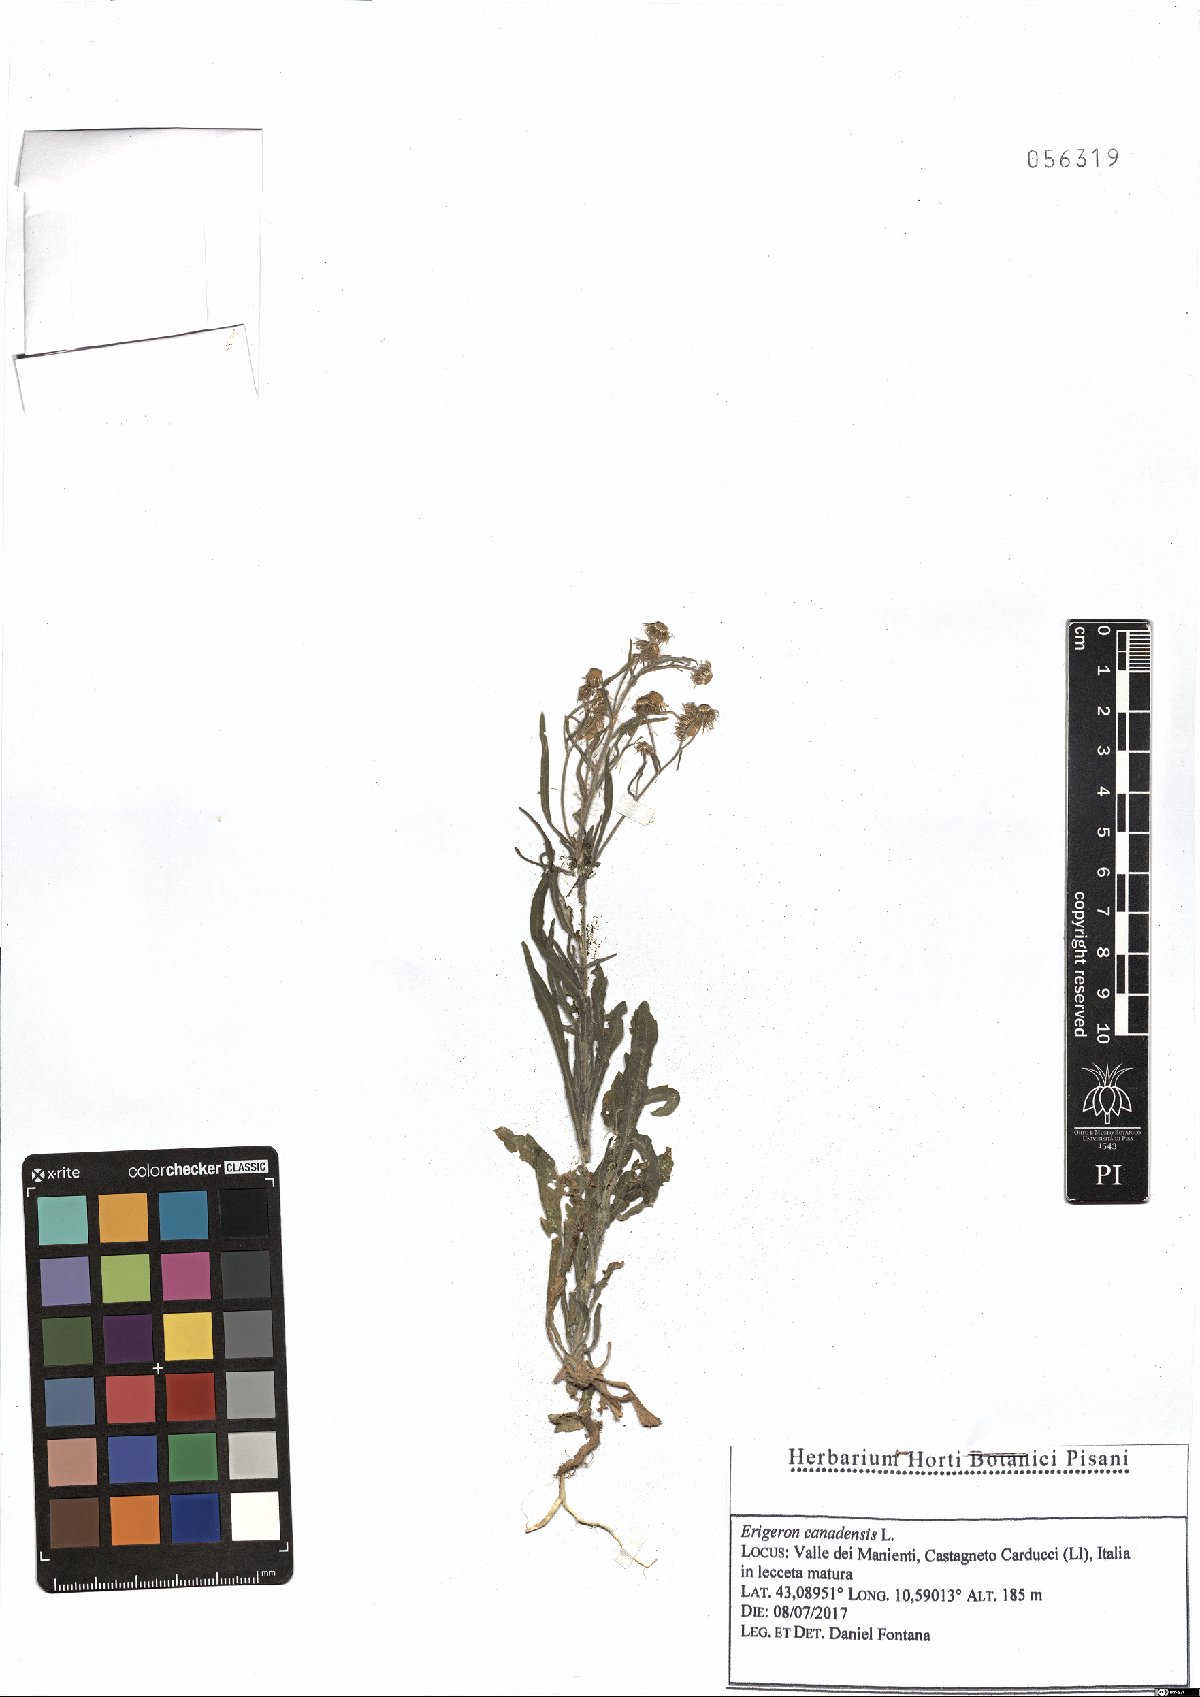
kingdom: Plantae
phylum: Tracheophyta
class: Magnoliopsida
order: Asterales
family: Asteraceae
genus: Erigeron
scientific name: Erigeron canadensis
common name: Canadian fleabane
